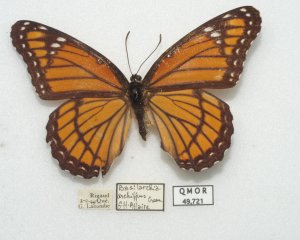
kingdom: Animalia
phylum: Arthropoda
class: Insecta
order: Lepidoptera
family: Nymphalidae
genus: Limenitis
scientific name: Limenitis archippus
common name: Viceroy
